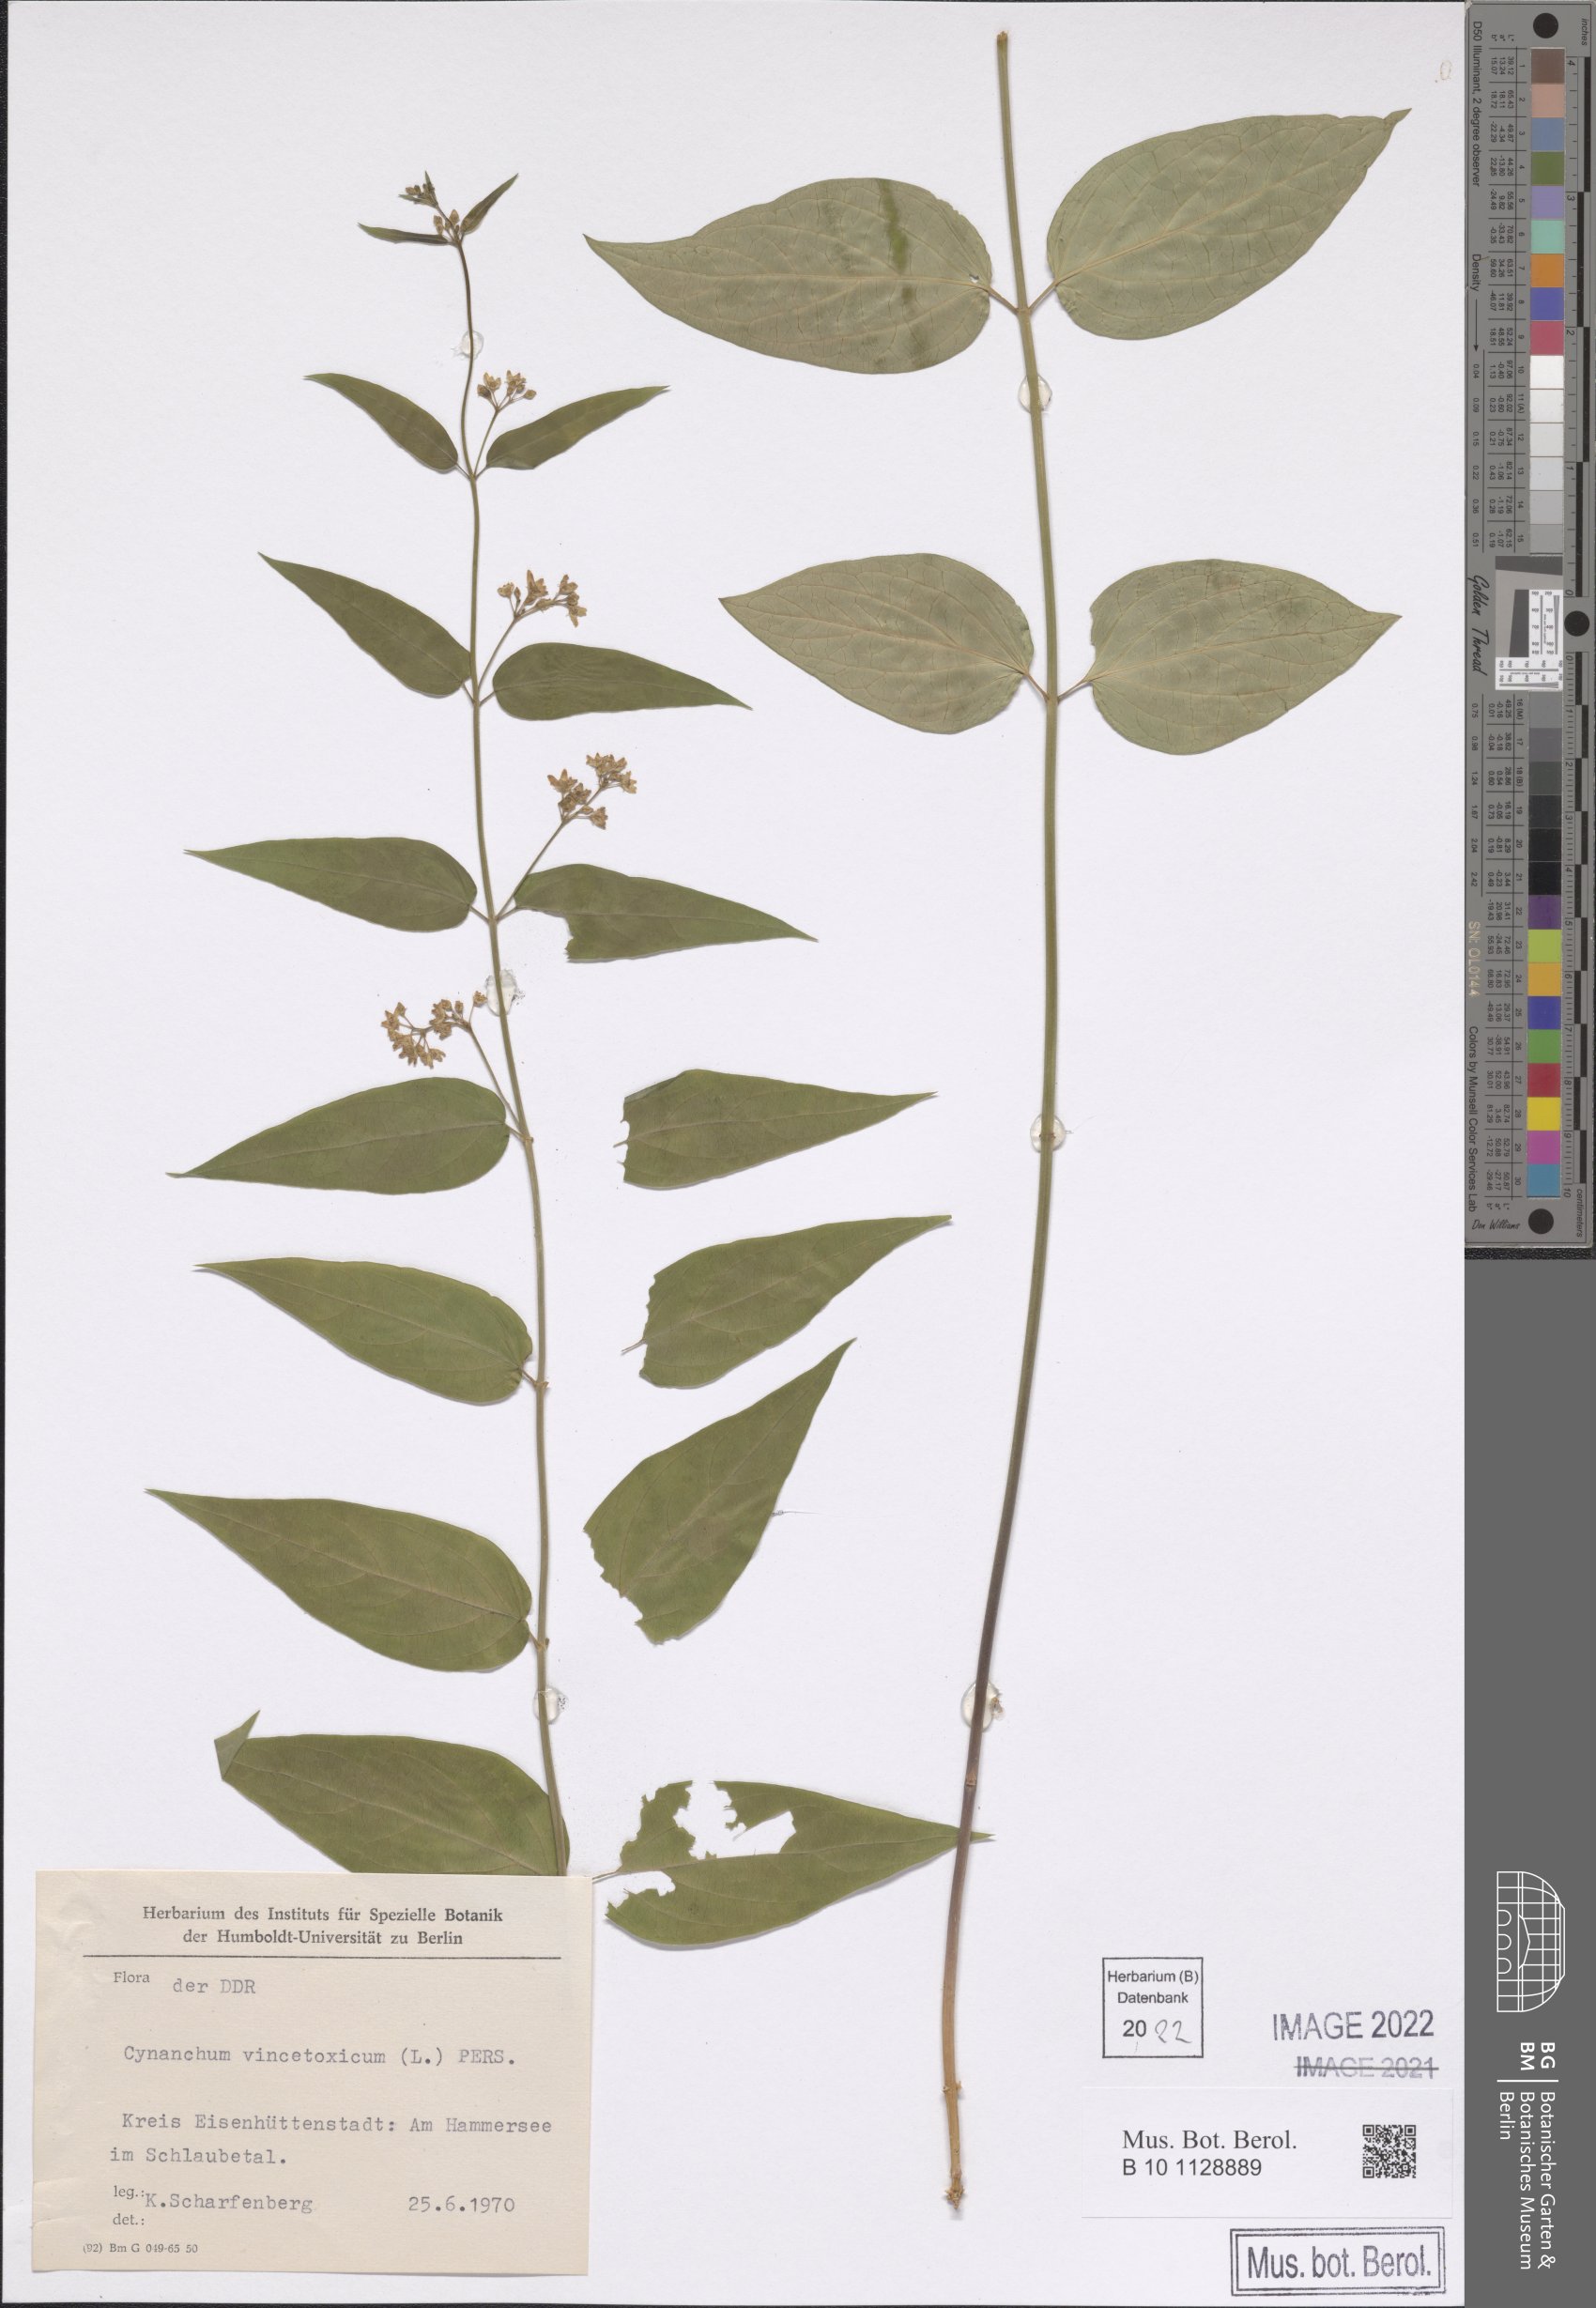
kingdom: Plantae
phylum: Tracheophyta
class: Magnoliopsida
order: Gentianales
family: Apocynaceae
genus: Vincetoxicum
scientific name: Vincetoxicum hirundinaria
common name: White swallowwort
